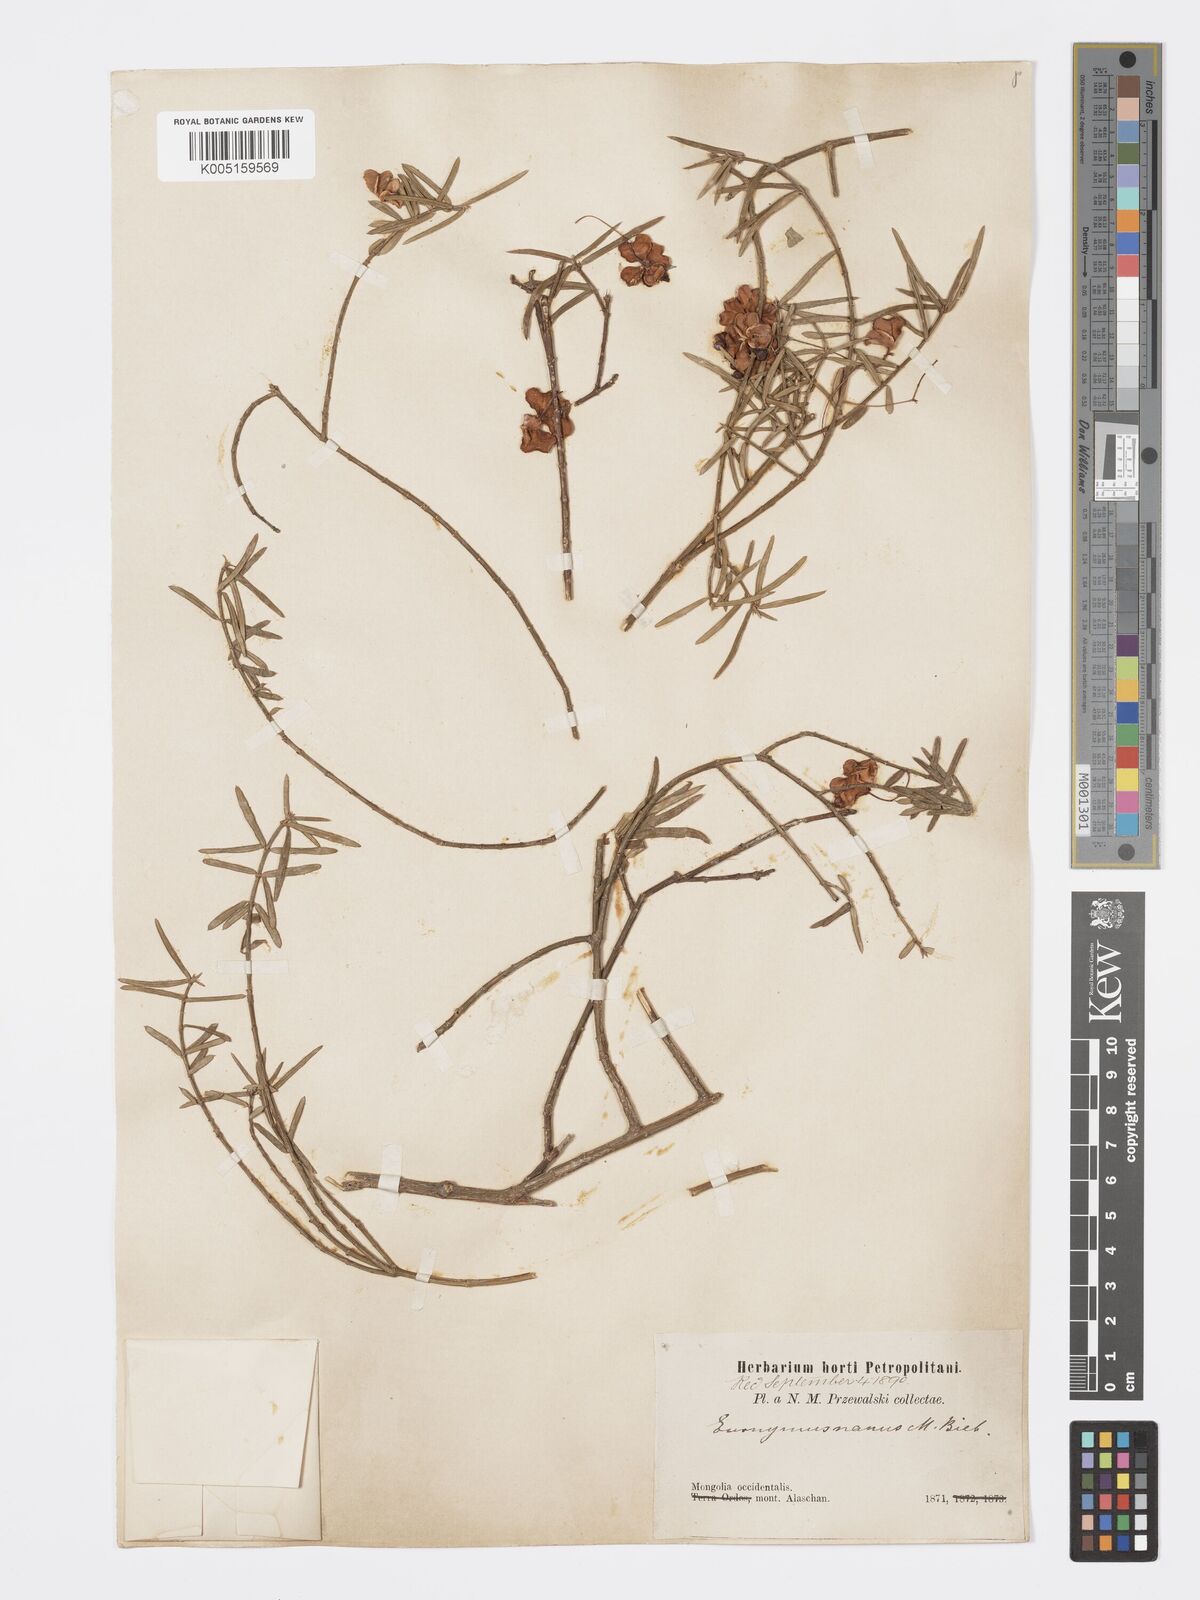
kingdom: Plantae
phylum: Tracheophyta
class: Magnoliopsida
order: Celastrales
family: Celastraceae
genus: Euonymus
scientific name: Euonymus nanus
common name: Dwarf spindle
